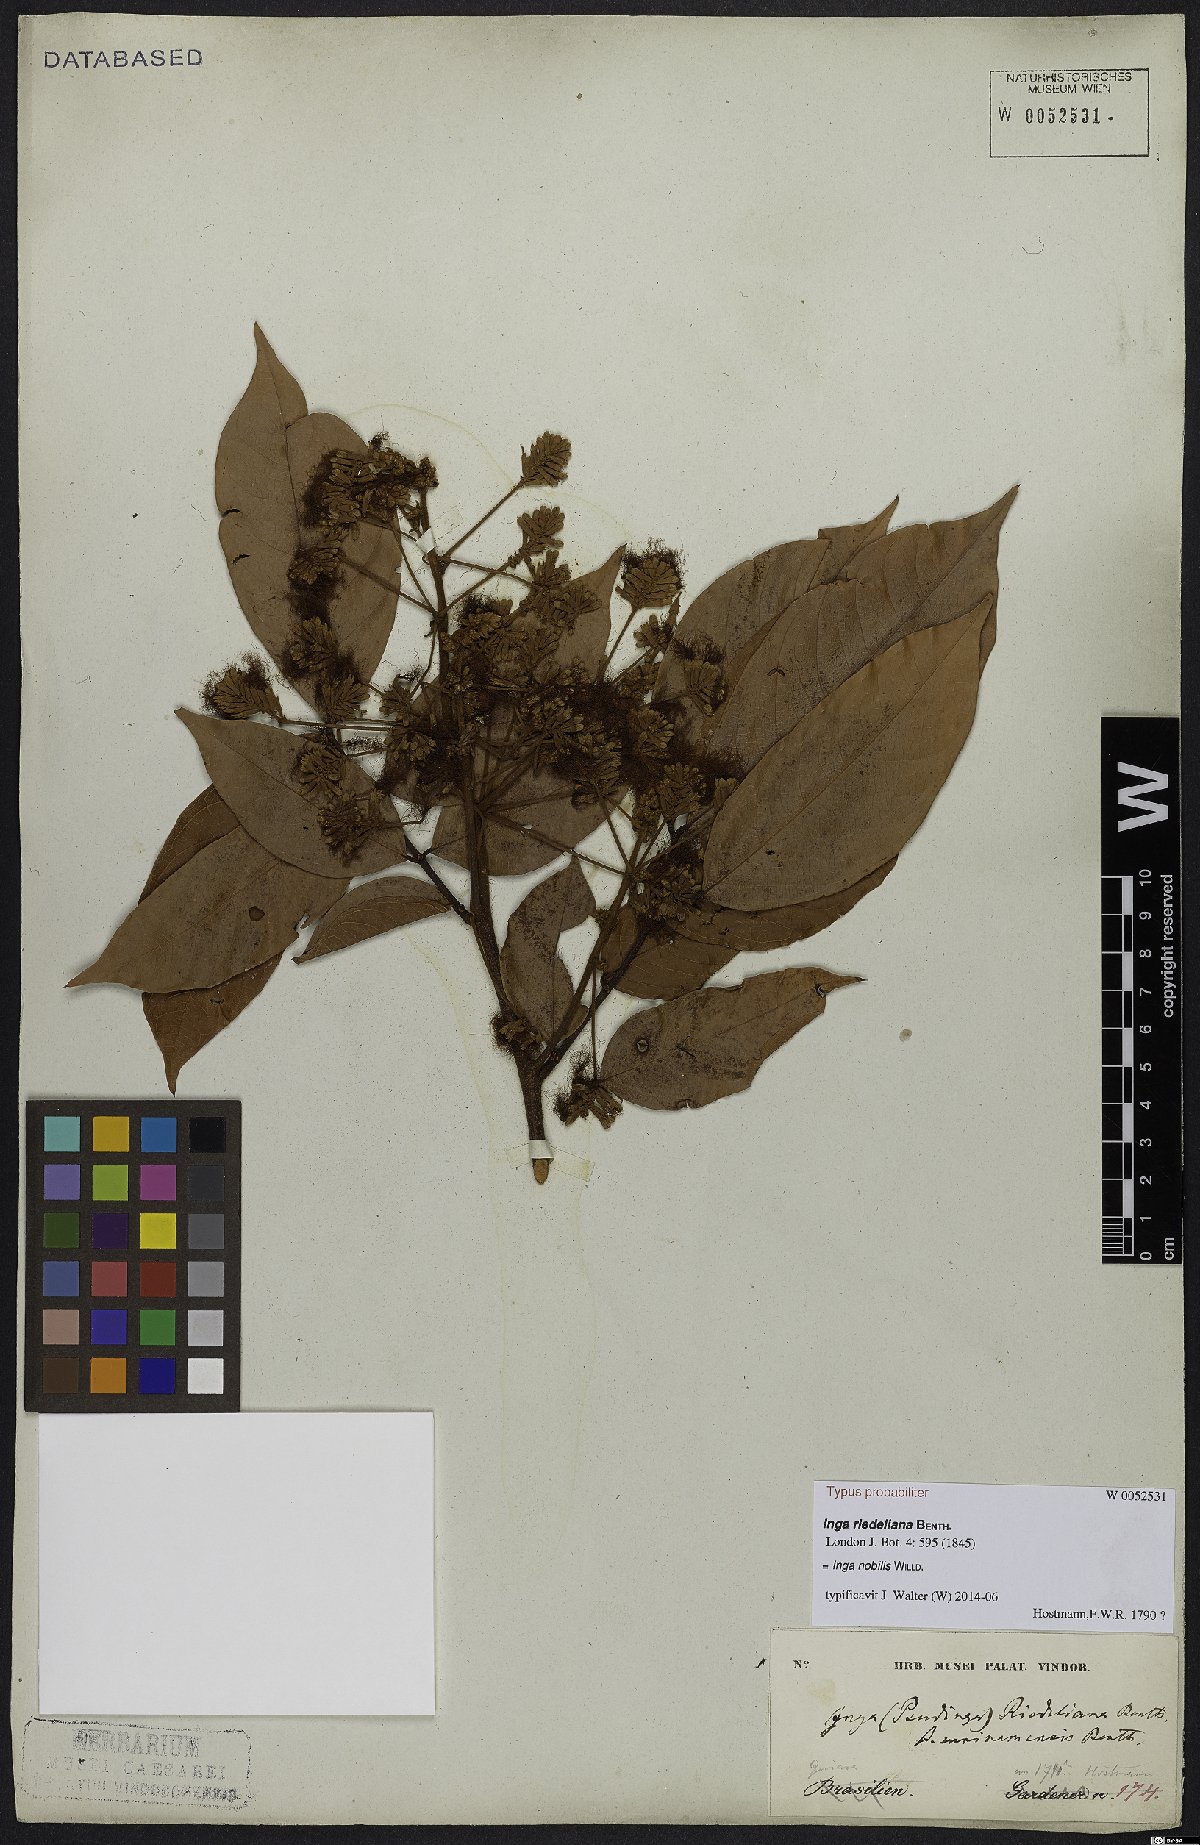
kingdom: Plantae
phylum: Tracheophyta
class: Magnoliopsida
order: Fabales
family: Fabaceae
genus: Inga
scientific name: Inga nobilis
